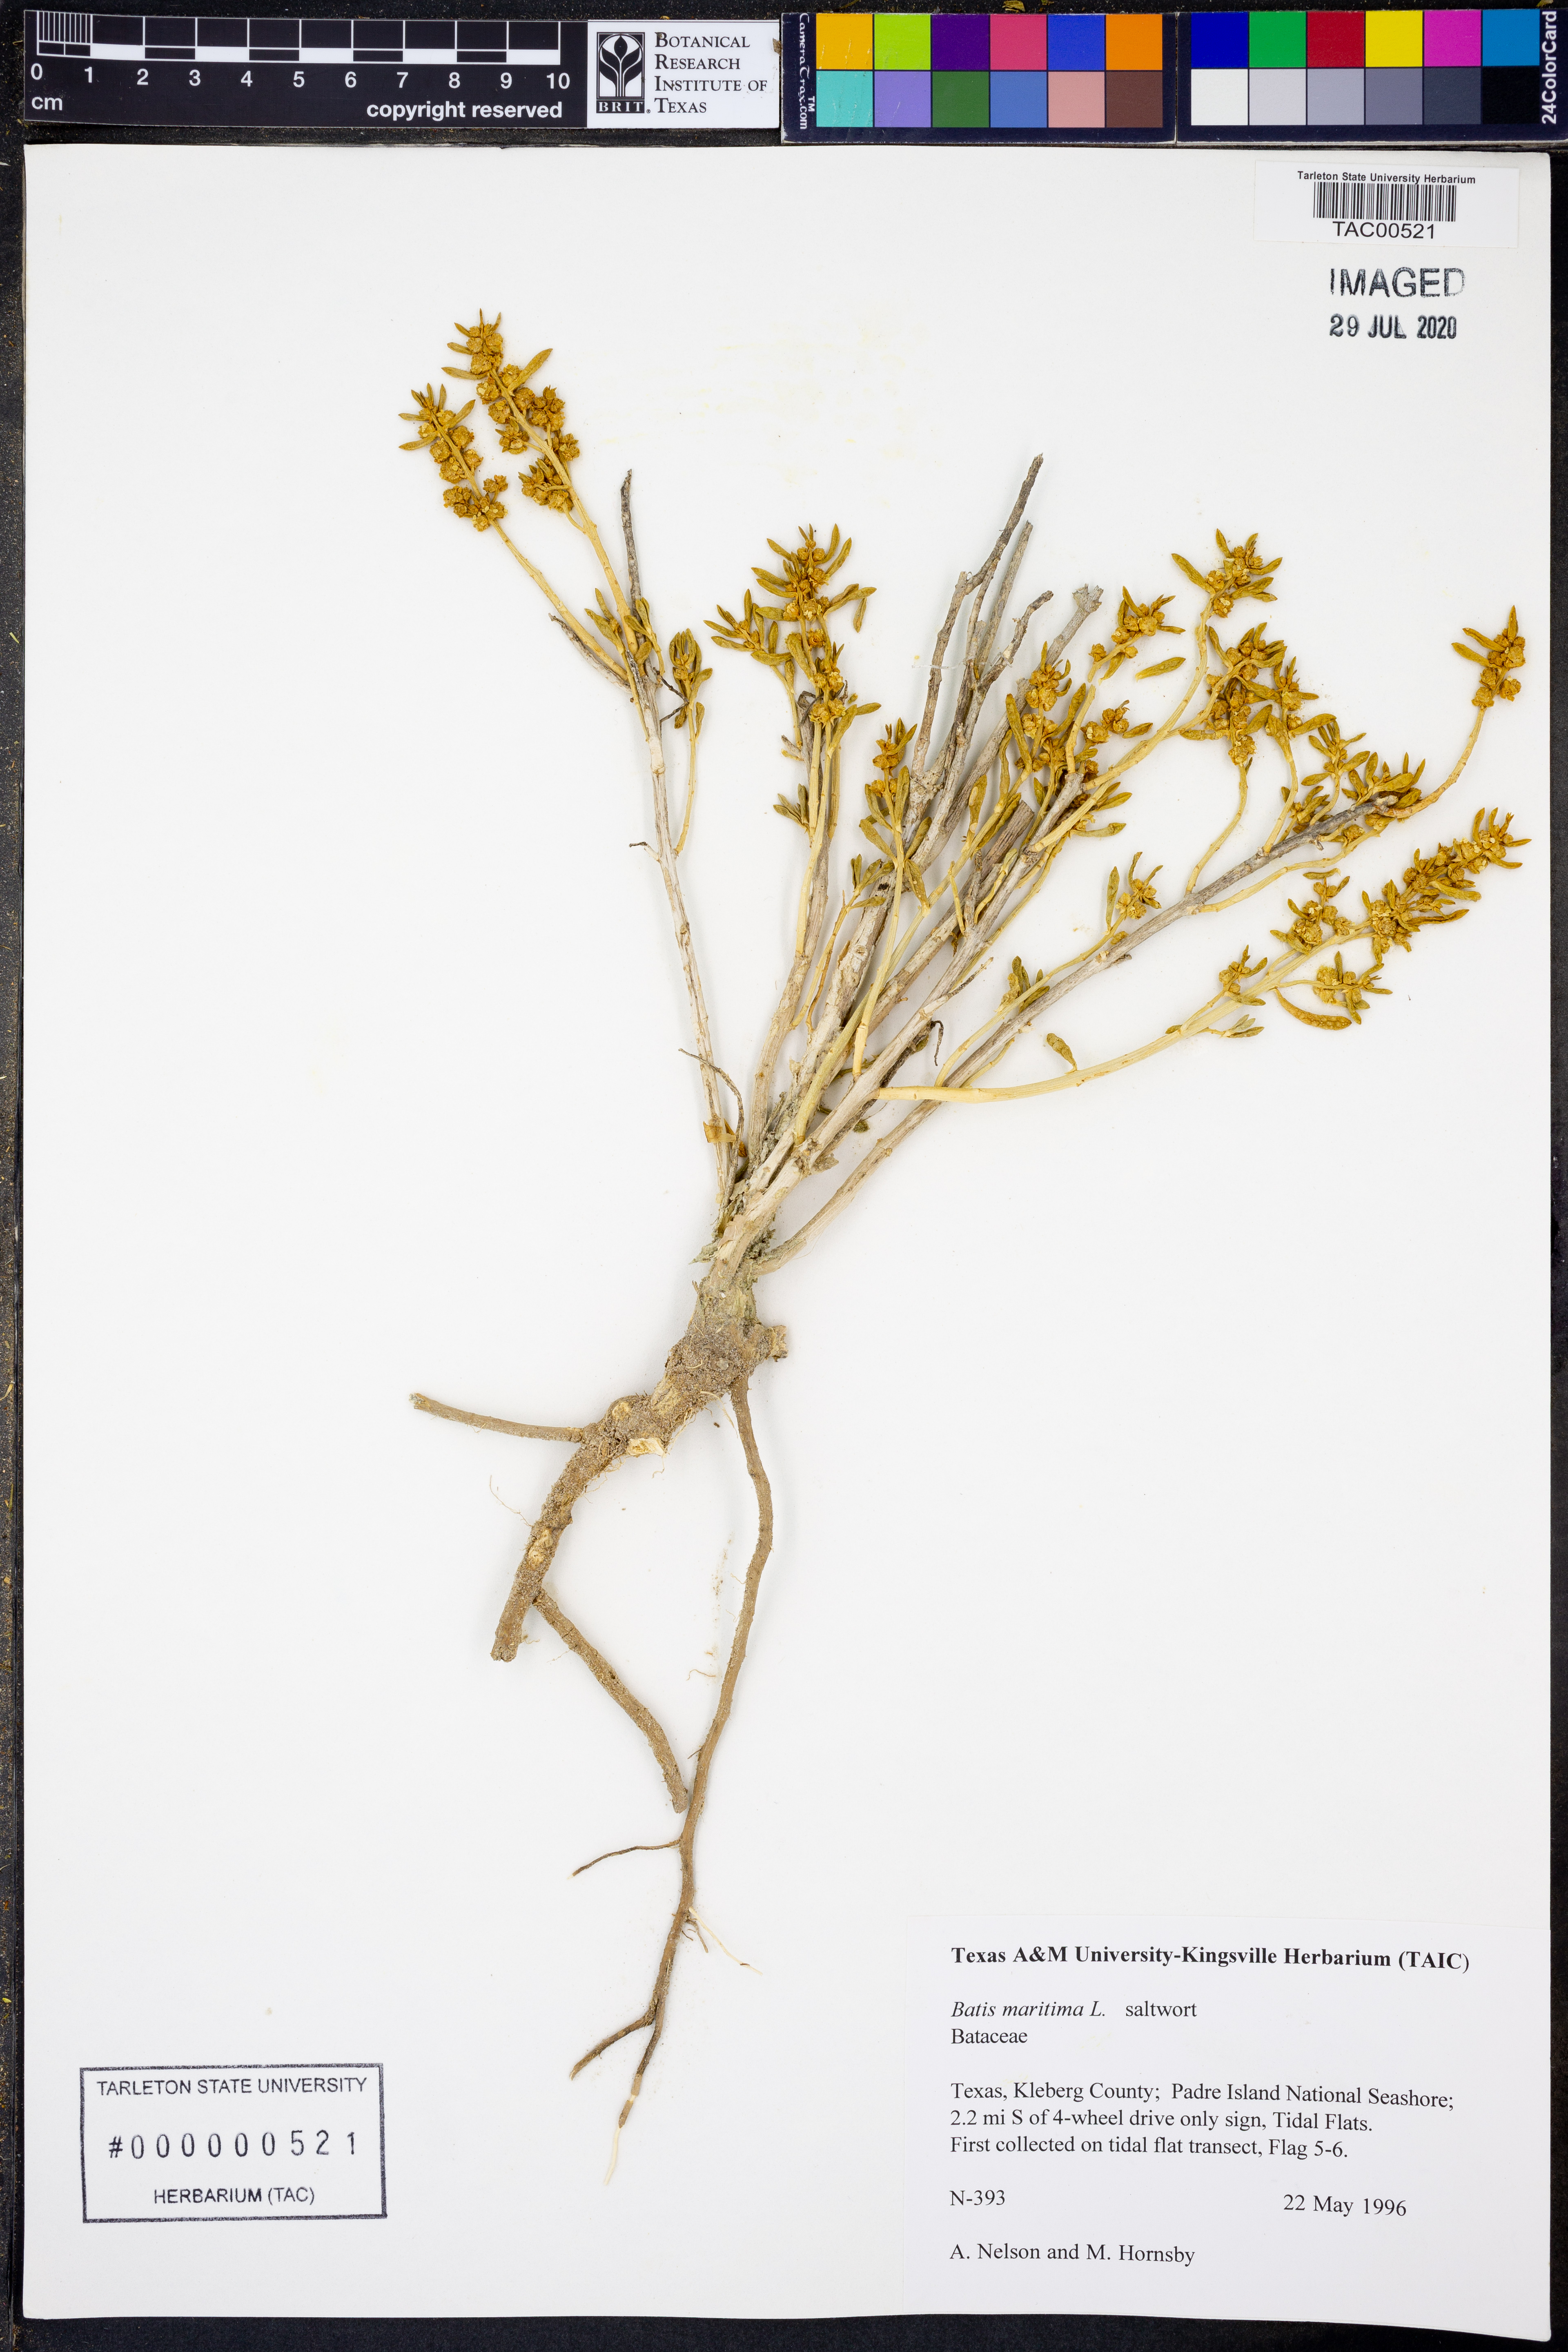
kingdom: Plantae
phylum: Tracheophyta
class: Magnoliopsida
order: Brassicales
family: Bataceae
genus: Batis
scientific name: Batis maritima
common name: Turtleweed
